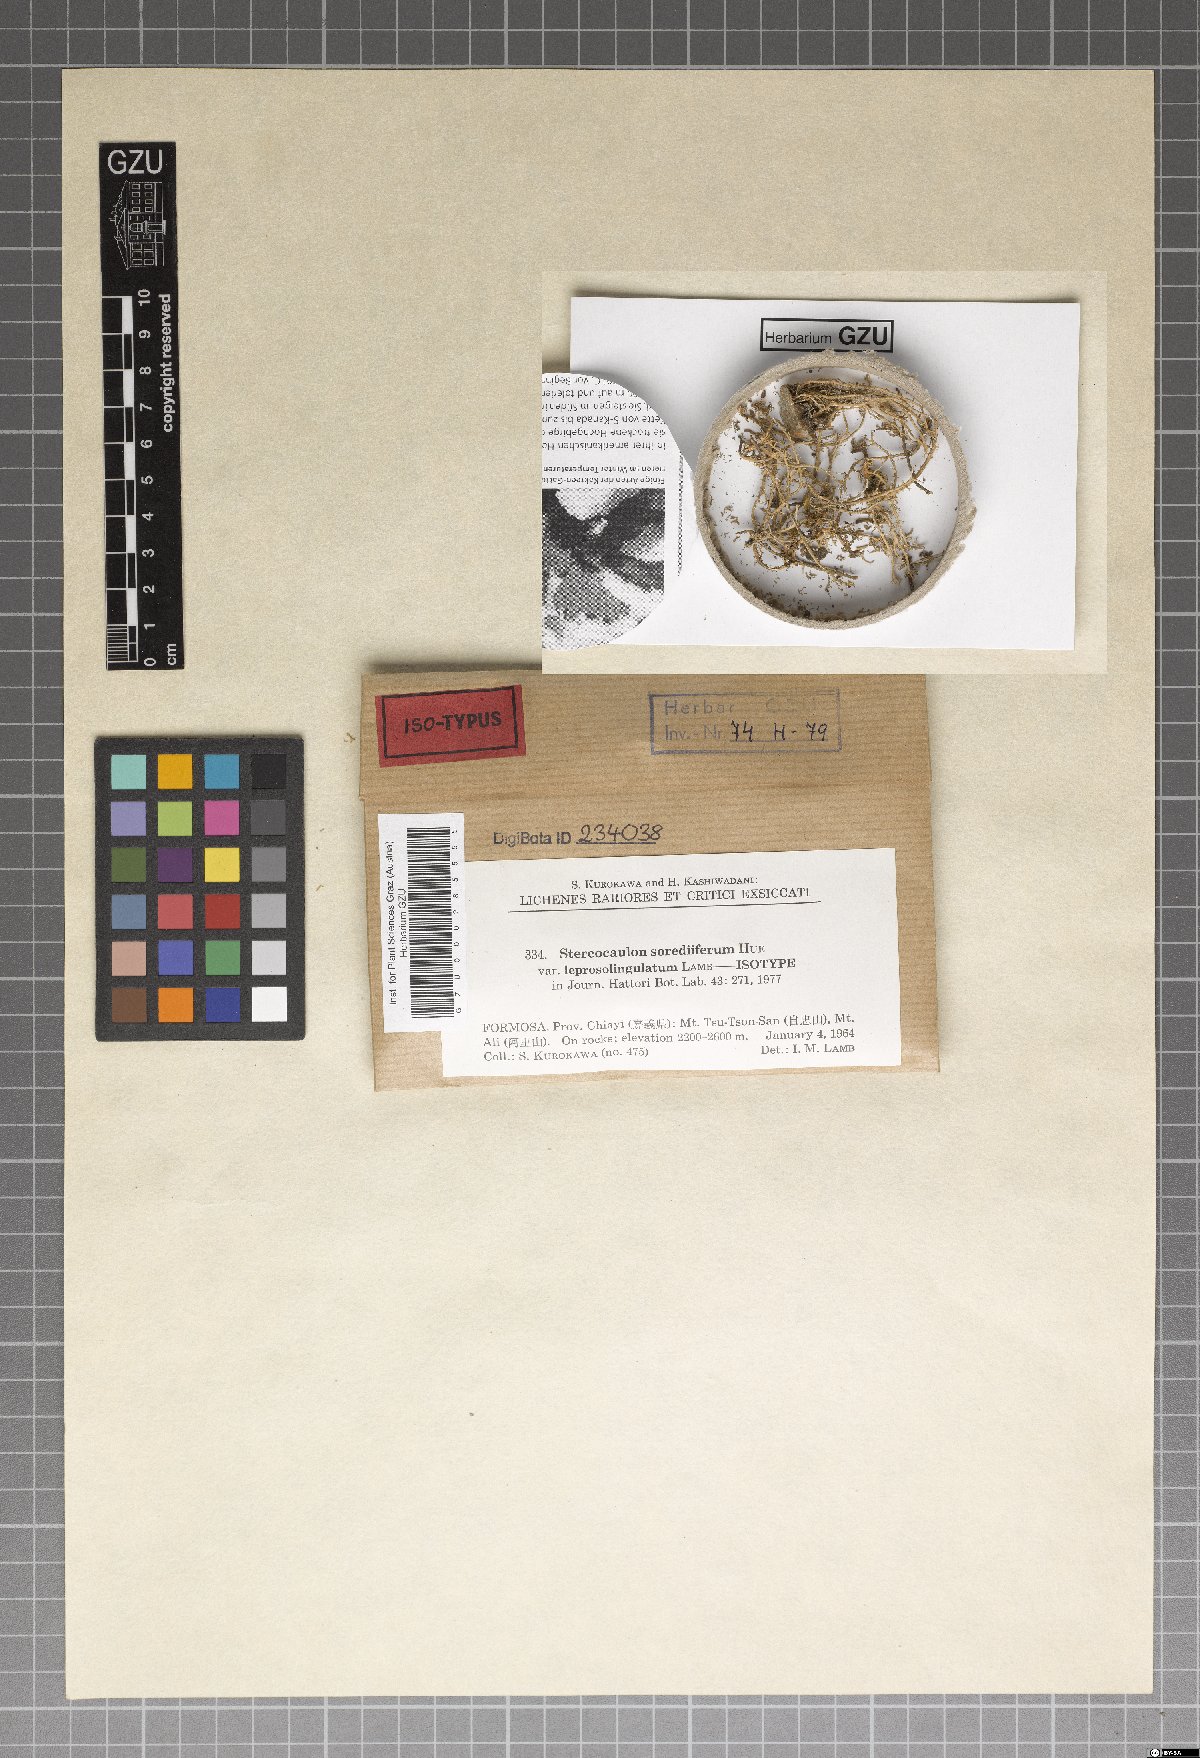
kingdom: Fungi
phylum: Ascomycota
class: Lecanoromycetes
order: Lecanorales
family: Stereocaulaceae
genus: Stereocaulon
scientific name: Stereocaulon sorediiferum
